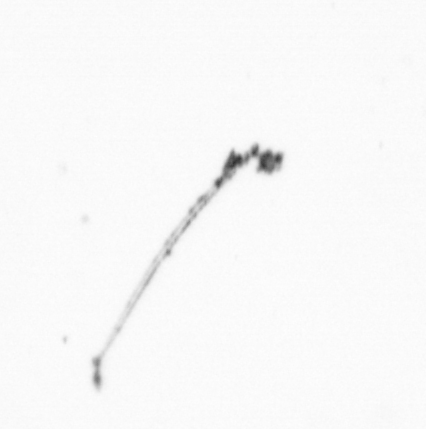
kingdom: Chromista
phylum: Ochrophyta
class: Bacillariophyceae
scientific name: Bacillariophyceae
